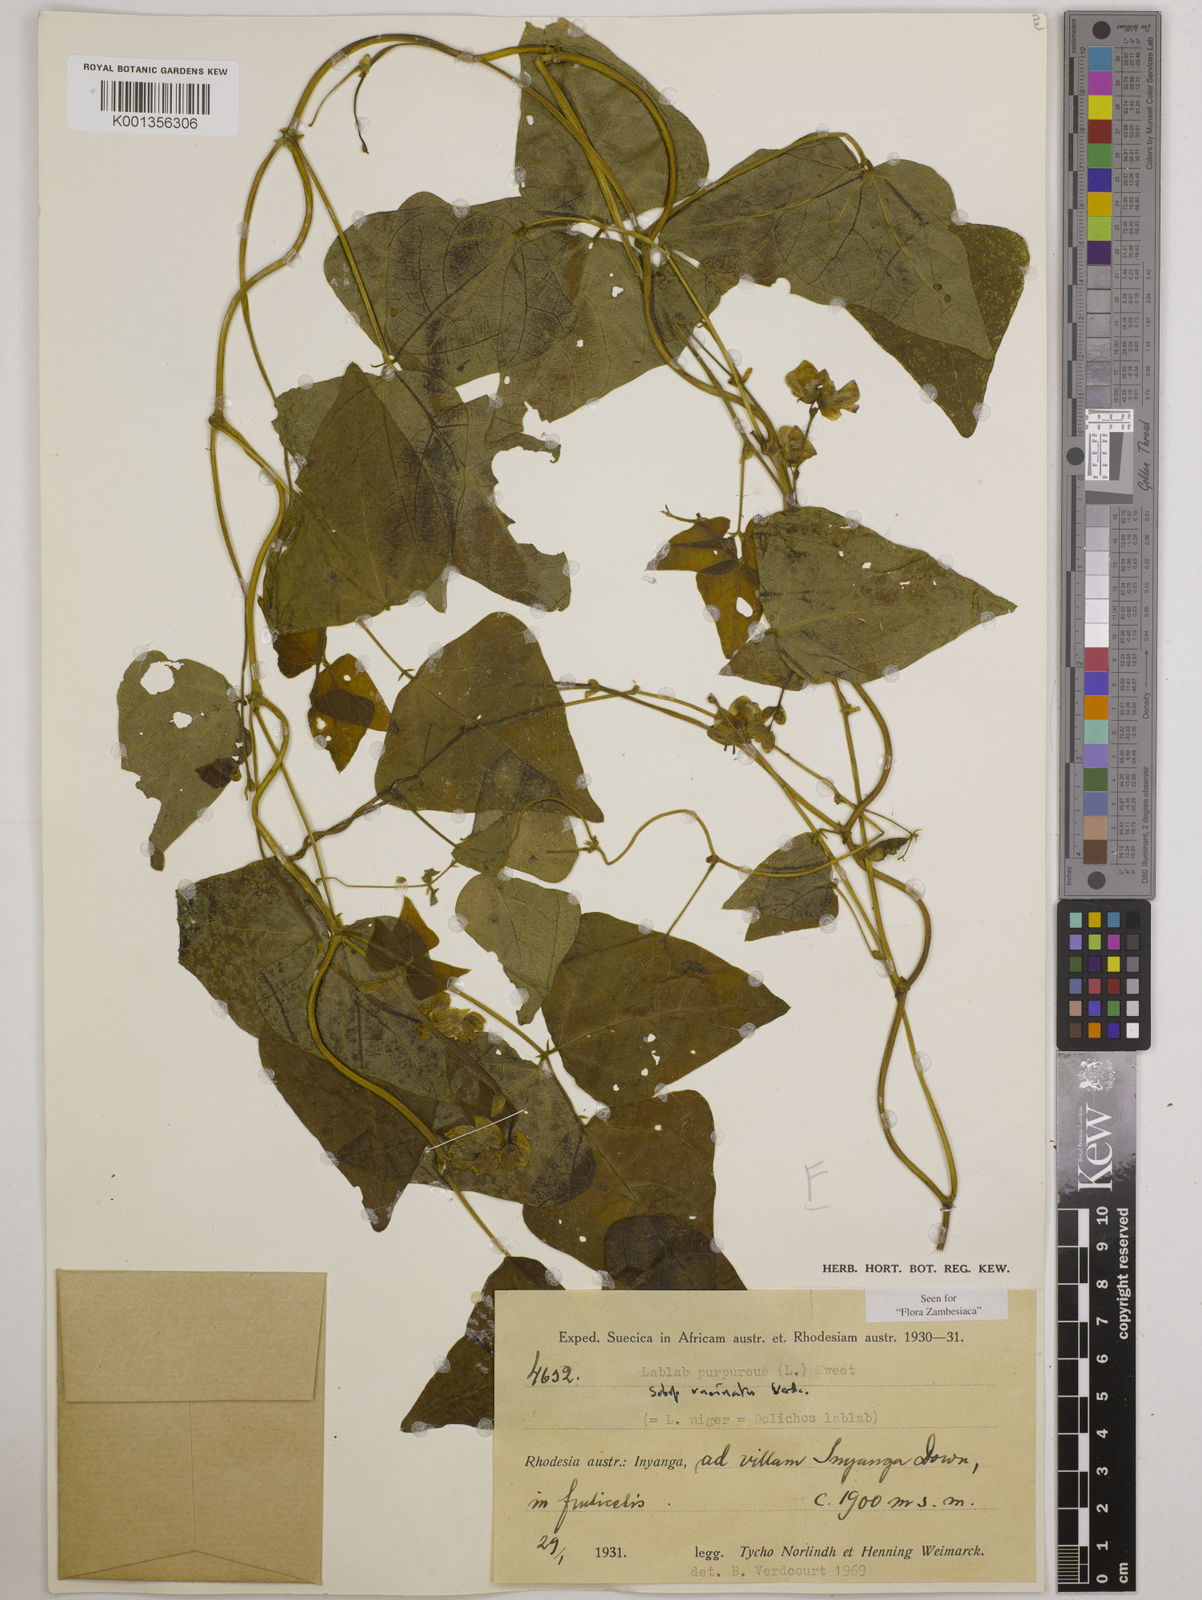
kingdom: Plantae
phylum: Tracheophyta
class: Magnoliopsida
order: Fabales
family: Fabaceae
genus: Lablab
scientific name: Lablab purpureus
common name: Lablab-bean
